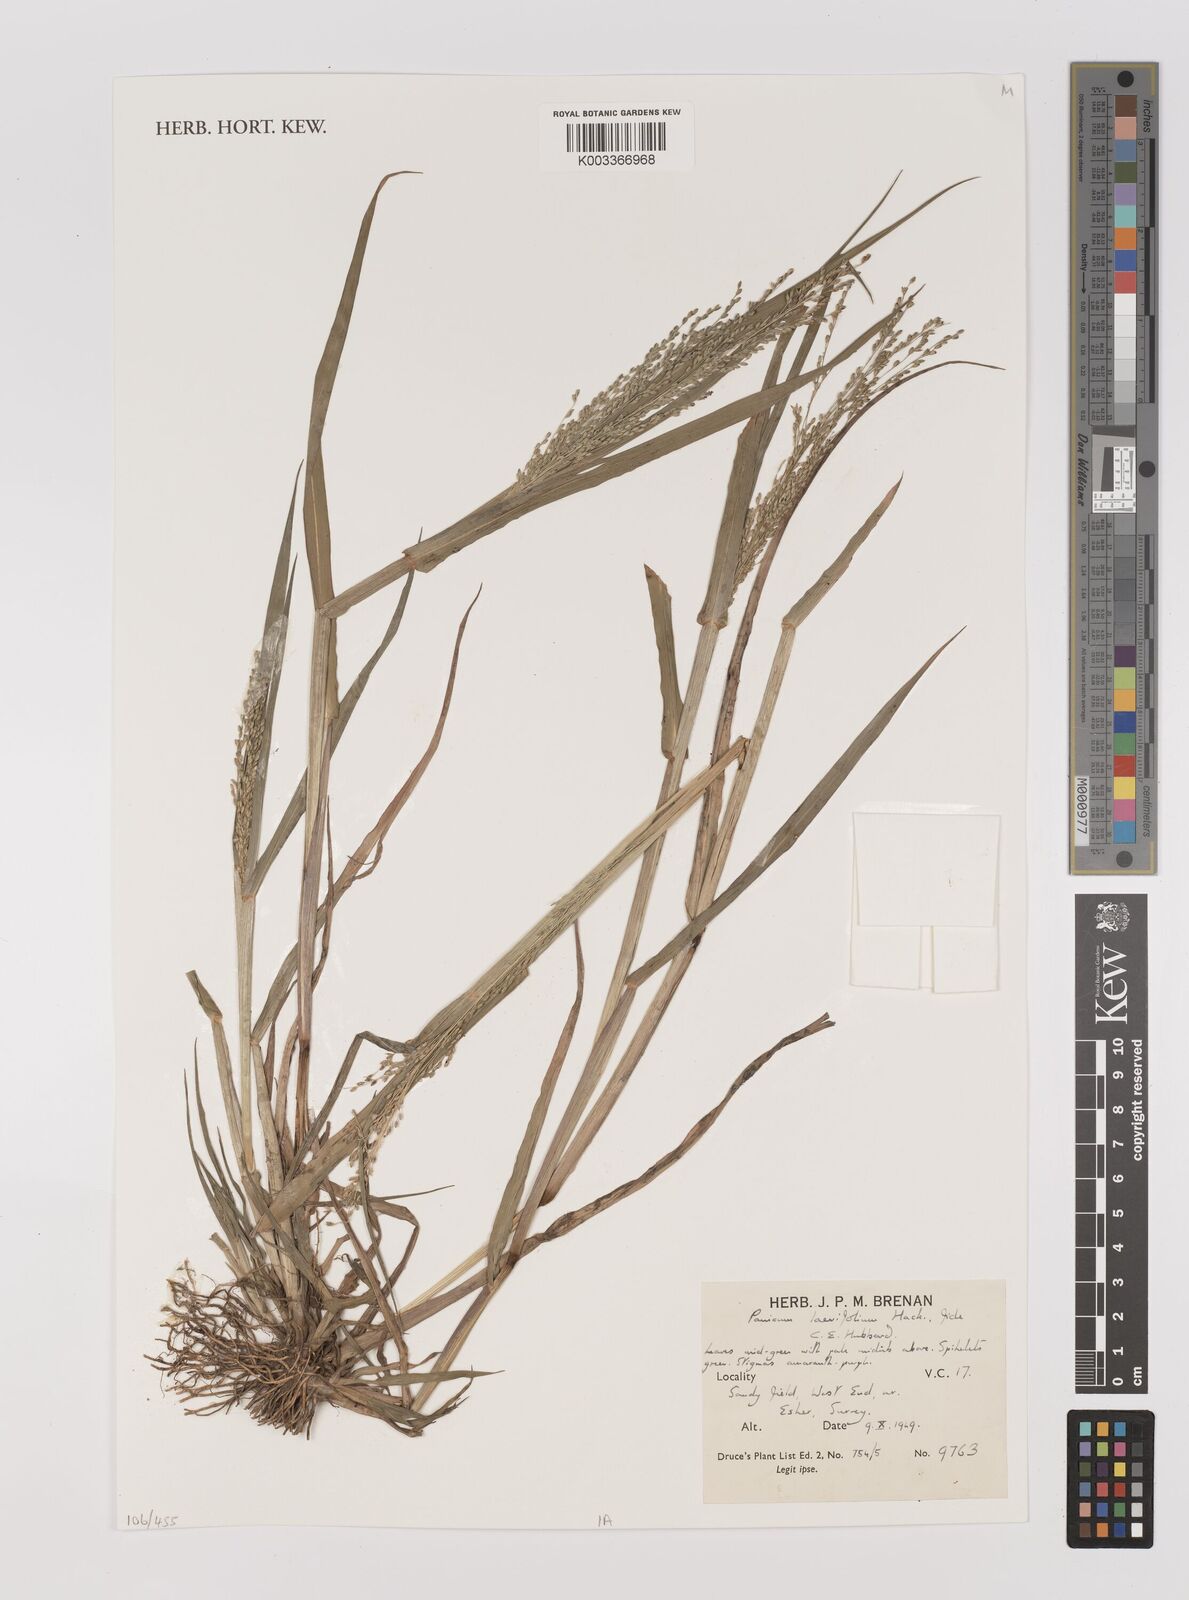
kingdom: Plantae
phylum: Tracheophyta
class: Liliopsida
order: Poales
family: Poaceae
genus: Panicum
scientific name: Panicum schinzii
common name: Sweet grass
